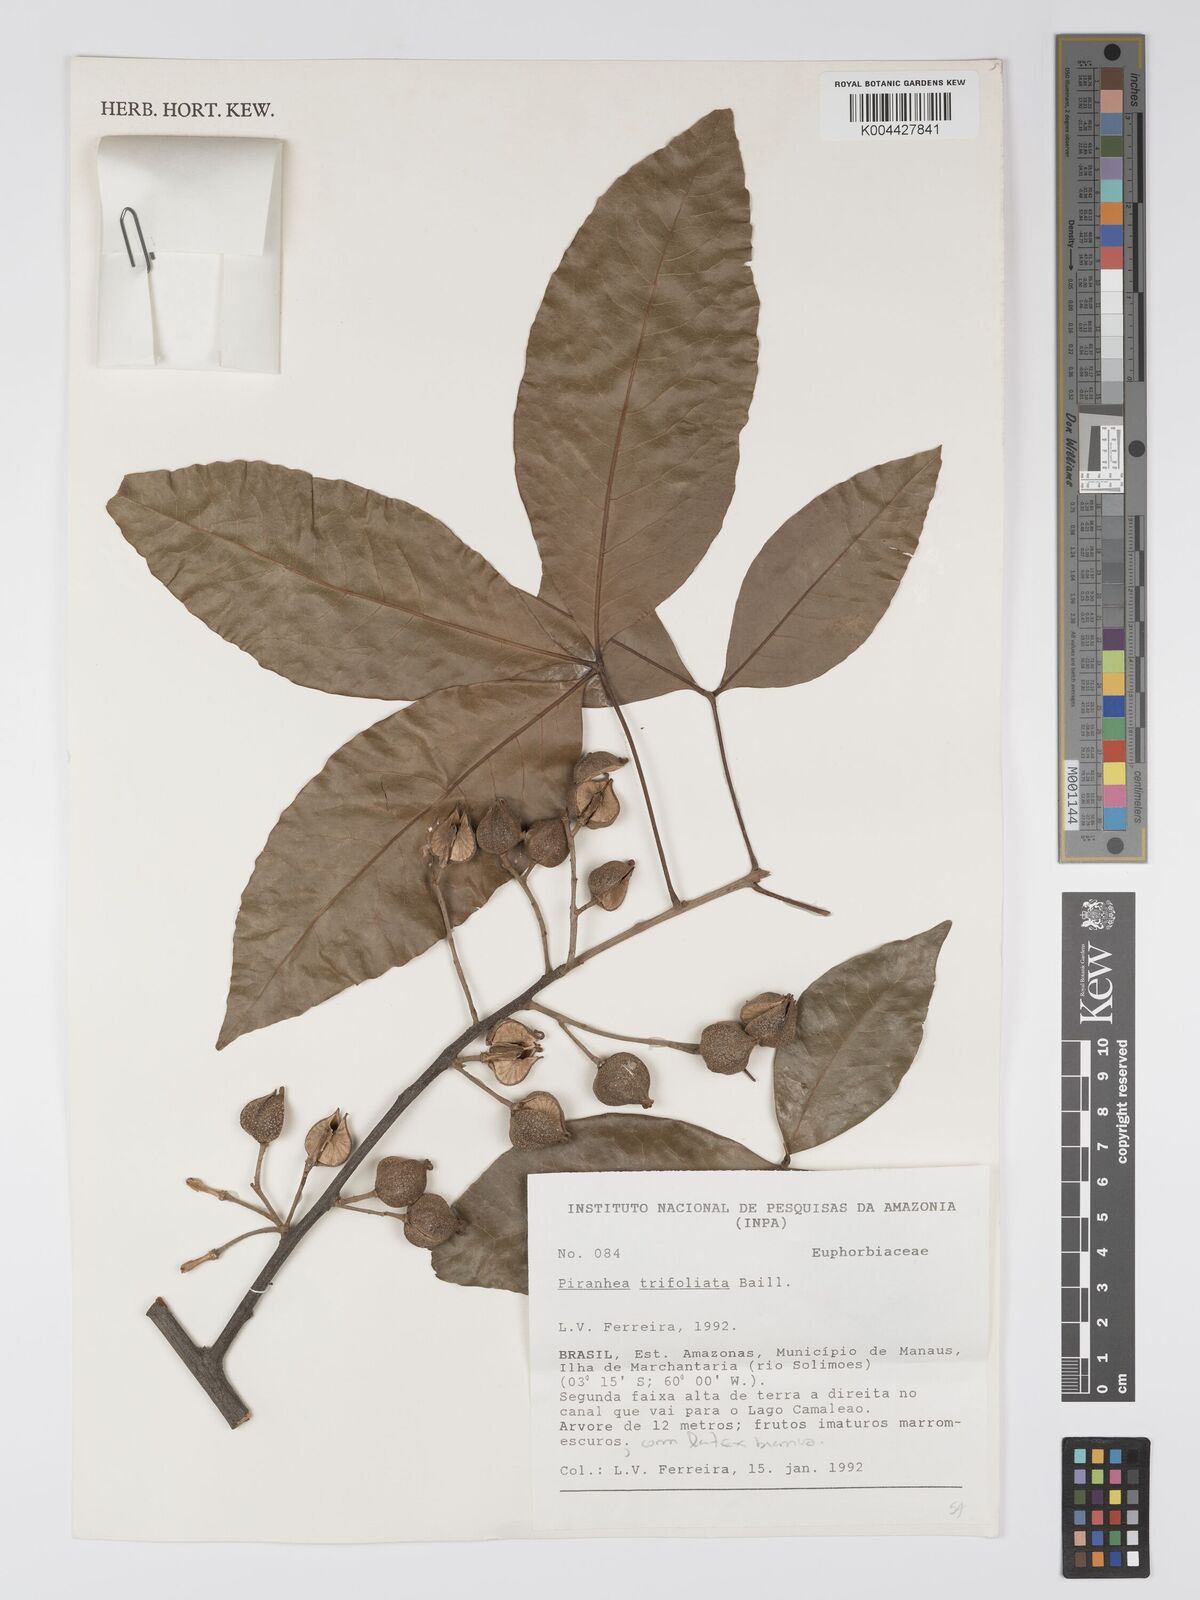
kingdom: Plantae
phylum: Tracheophyta
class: Magnoliopsida
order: Malpighiales
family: Picrodendraceae
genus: Piranhea
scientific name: Piranhea trifoliolata
